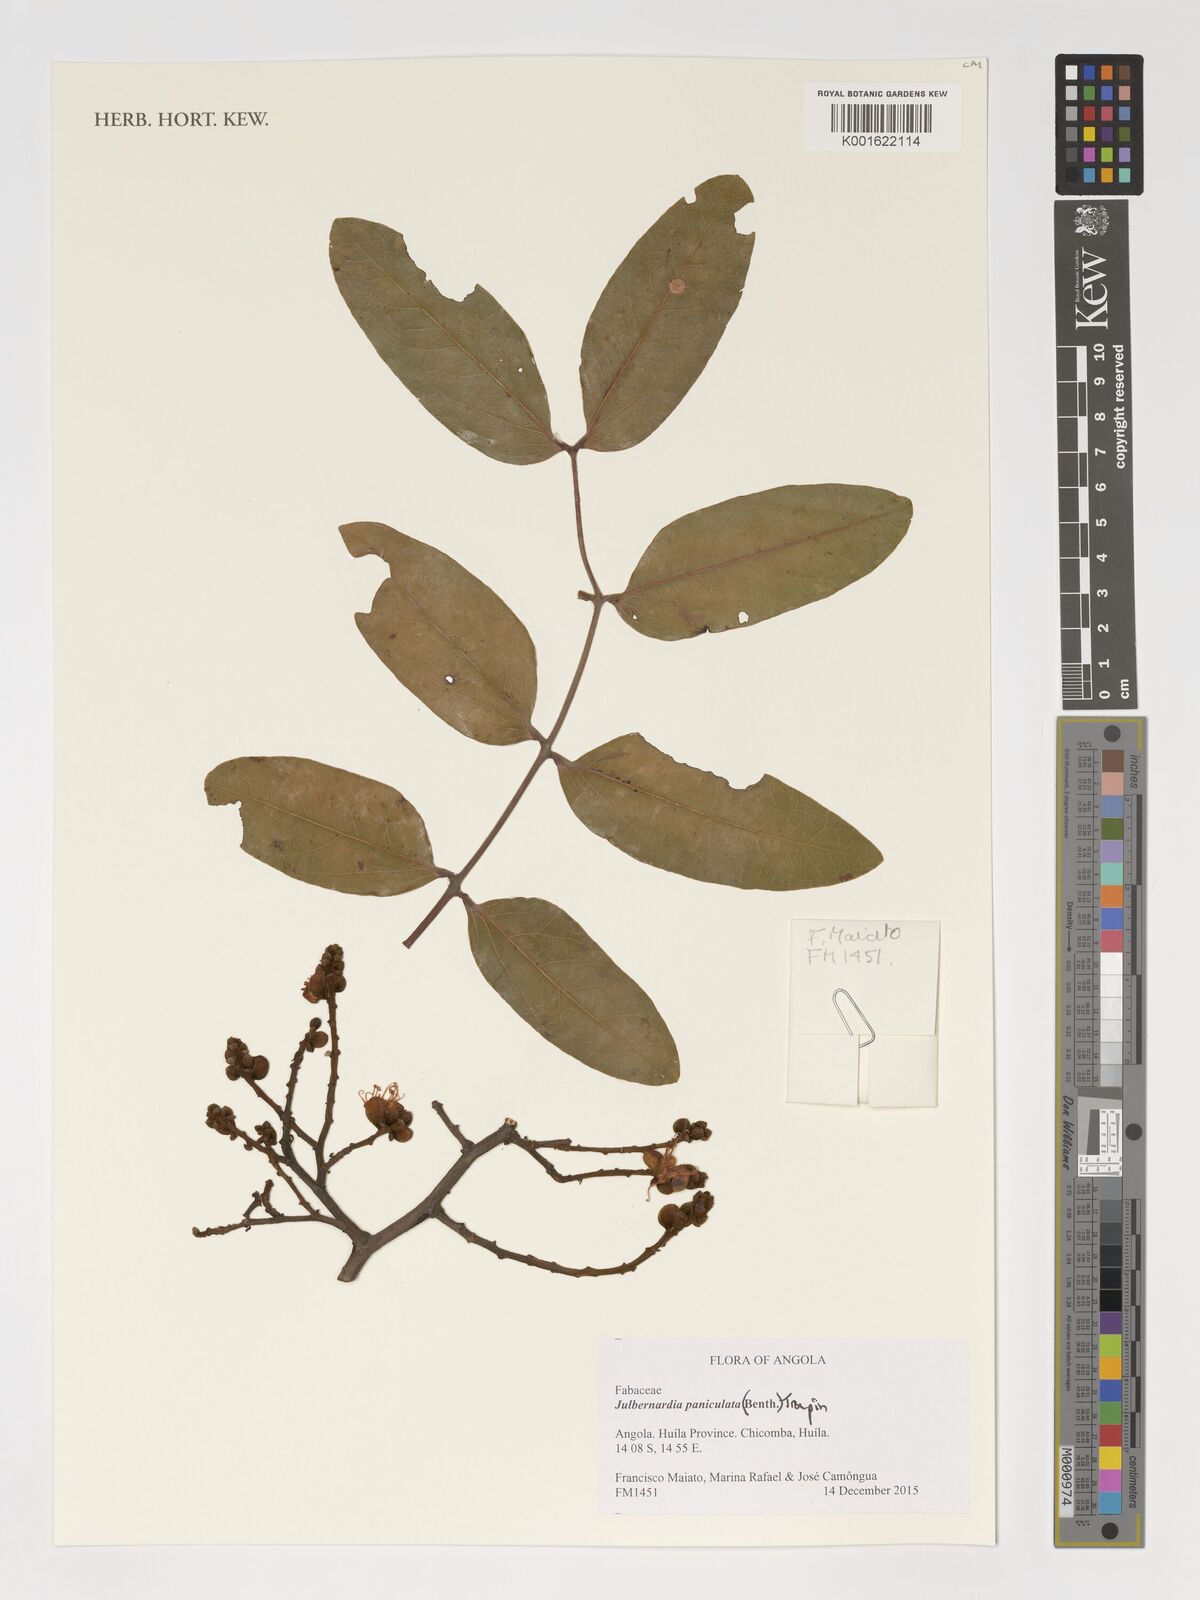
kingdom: Plantae
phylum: Tracheophyta
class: Magnoliopsida
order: Fabales
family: Fabaceae
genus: Julbernardia
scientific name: Julbernardia paniculata
